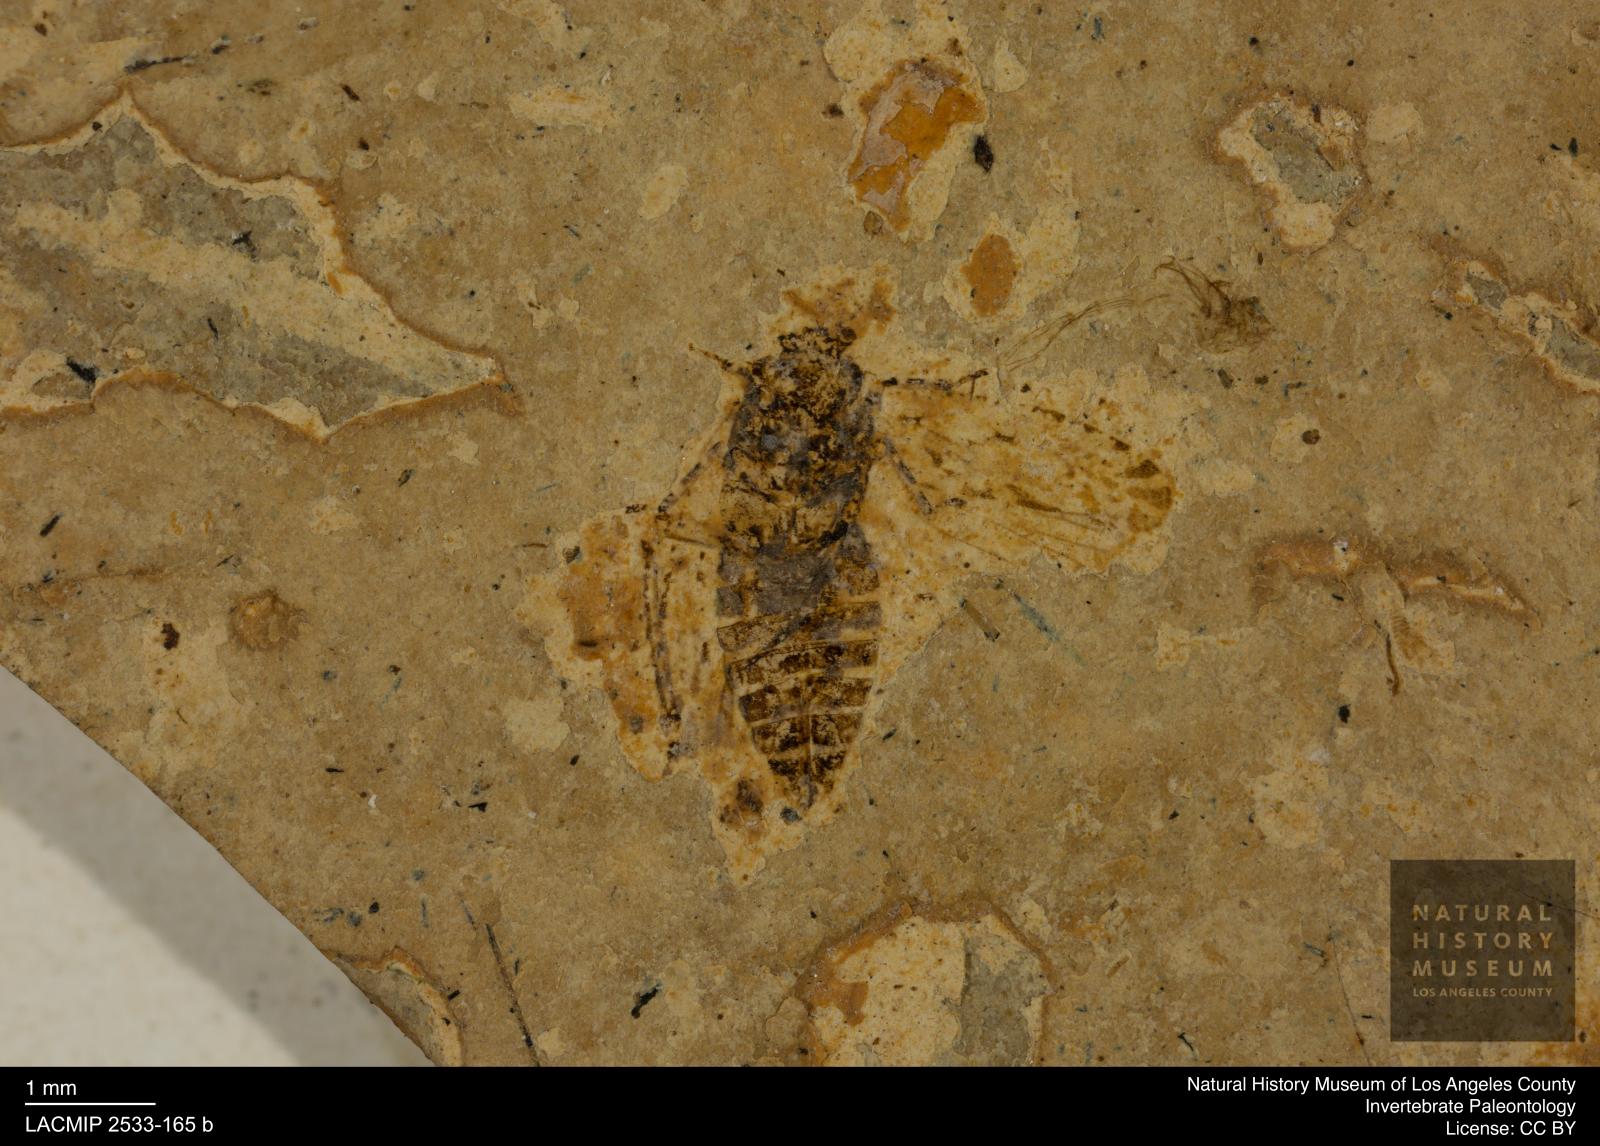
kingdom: Animalia
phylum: Arthropoda
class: Insecta
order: Hemiptera
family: Cicadellidae
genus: Deltocephalus
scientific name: Deltocephalus pennatus
